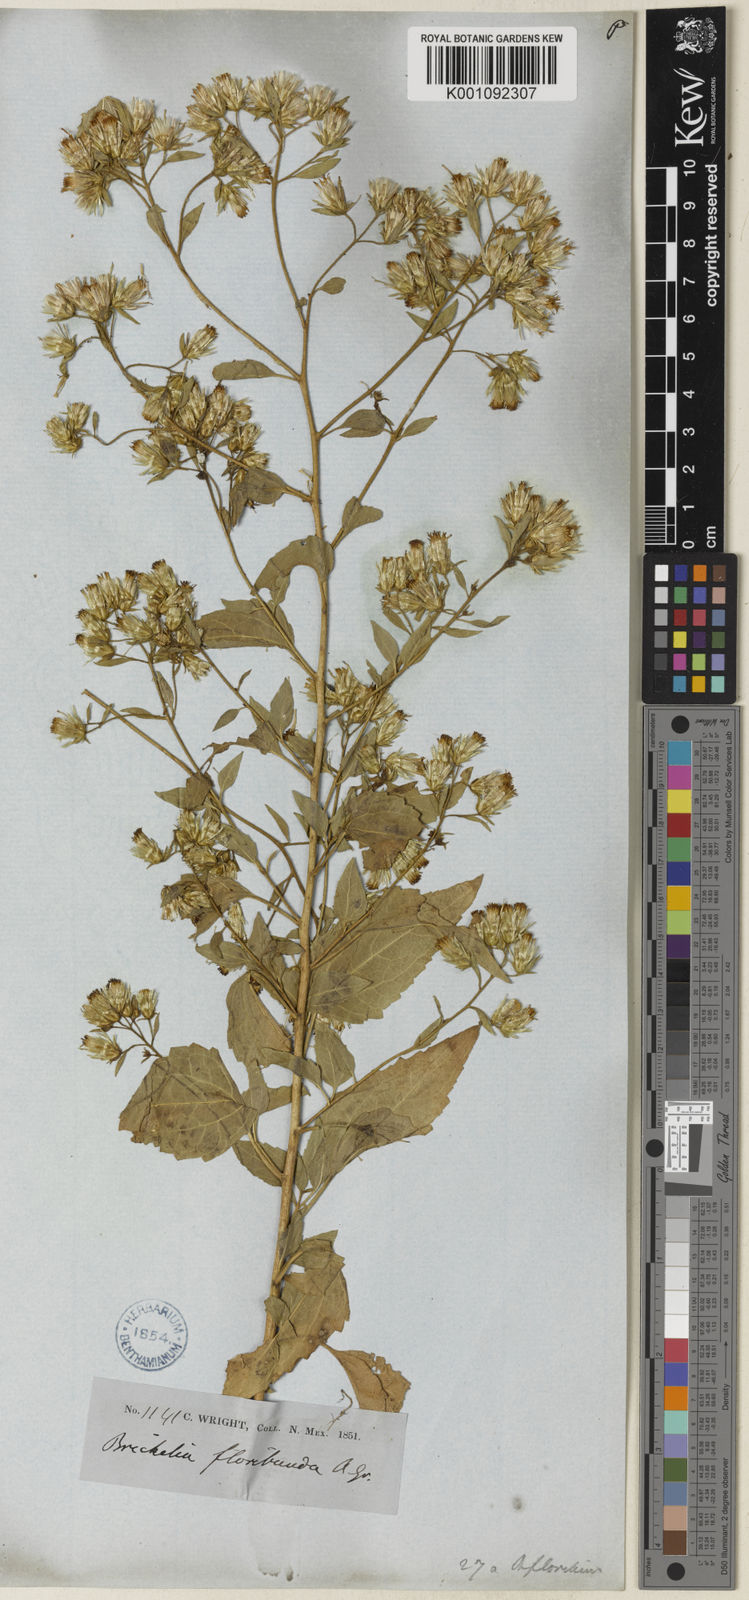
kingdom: Plantae
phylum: Tracheophyta
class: Magnoliopsida
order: Asterales
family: Asteraceae
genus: Brickellia
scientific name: Brickellia floribunda
